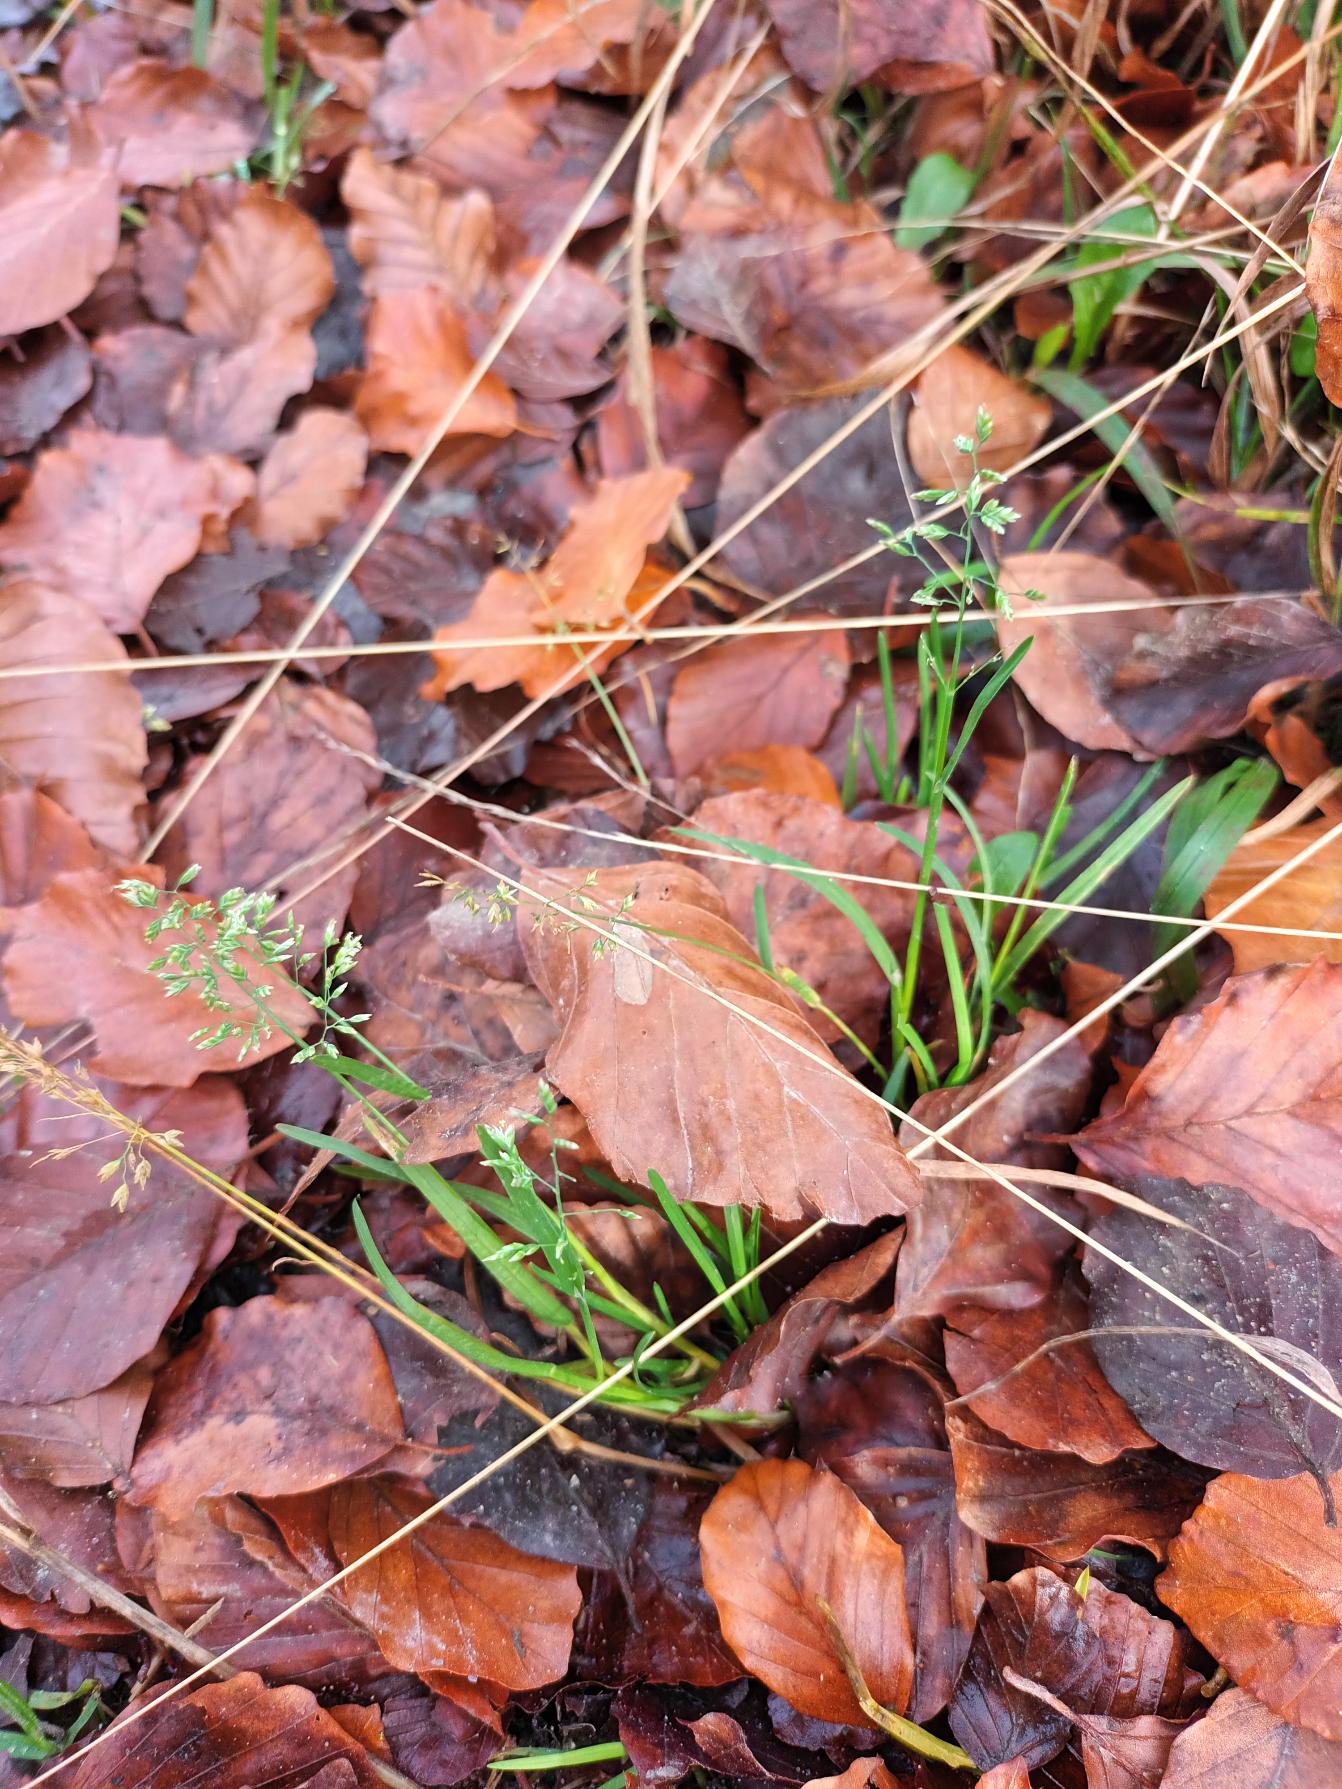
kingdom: Plantae
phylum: Tracheophyta
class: Liliopsida
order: Poales
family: Poaceae
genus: Poa
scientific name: Poa annua
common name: Enårig rapgræs
